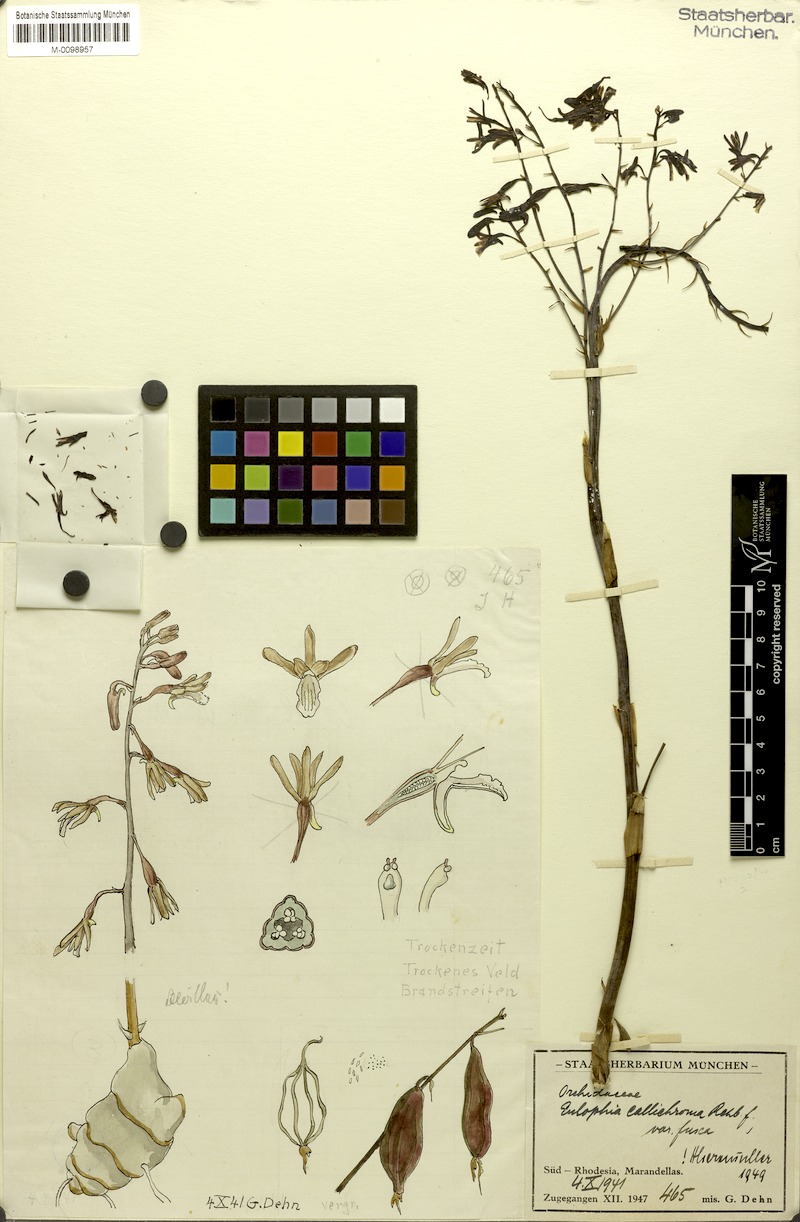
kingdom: Plantae
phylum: Tracheophyta
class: Liliopsida
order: Asparagales
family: Orchidaceae
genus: Eulophia
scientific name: Eulophia callichroma
